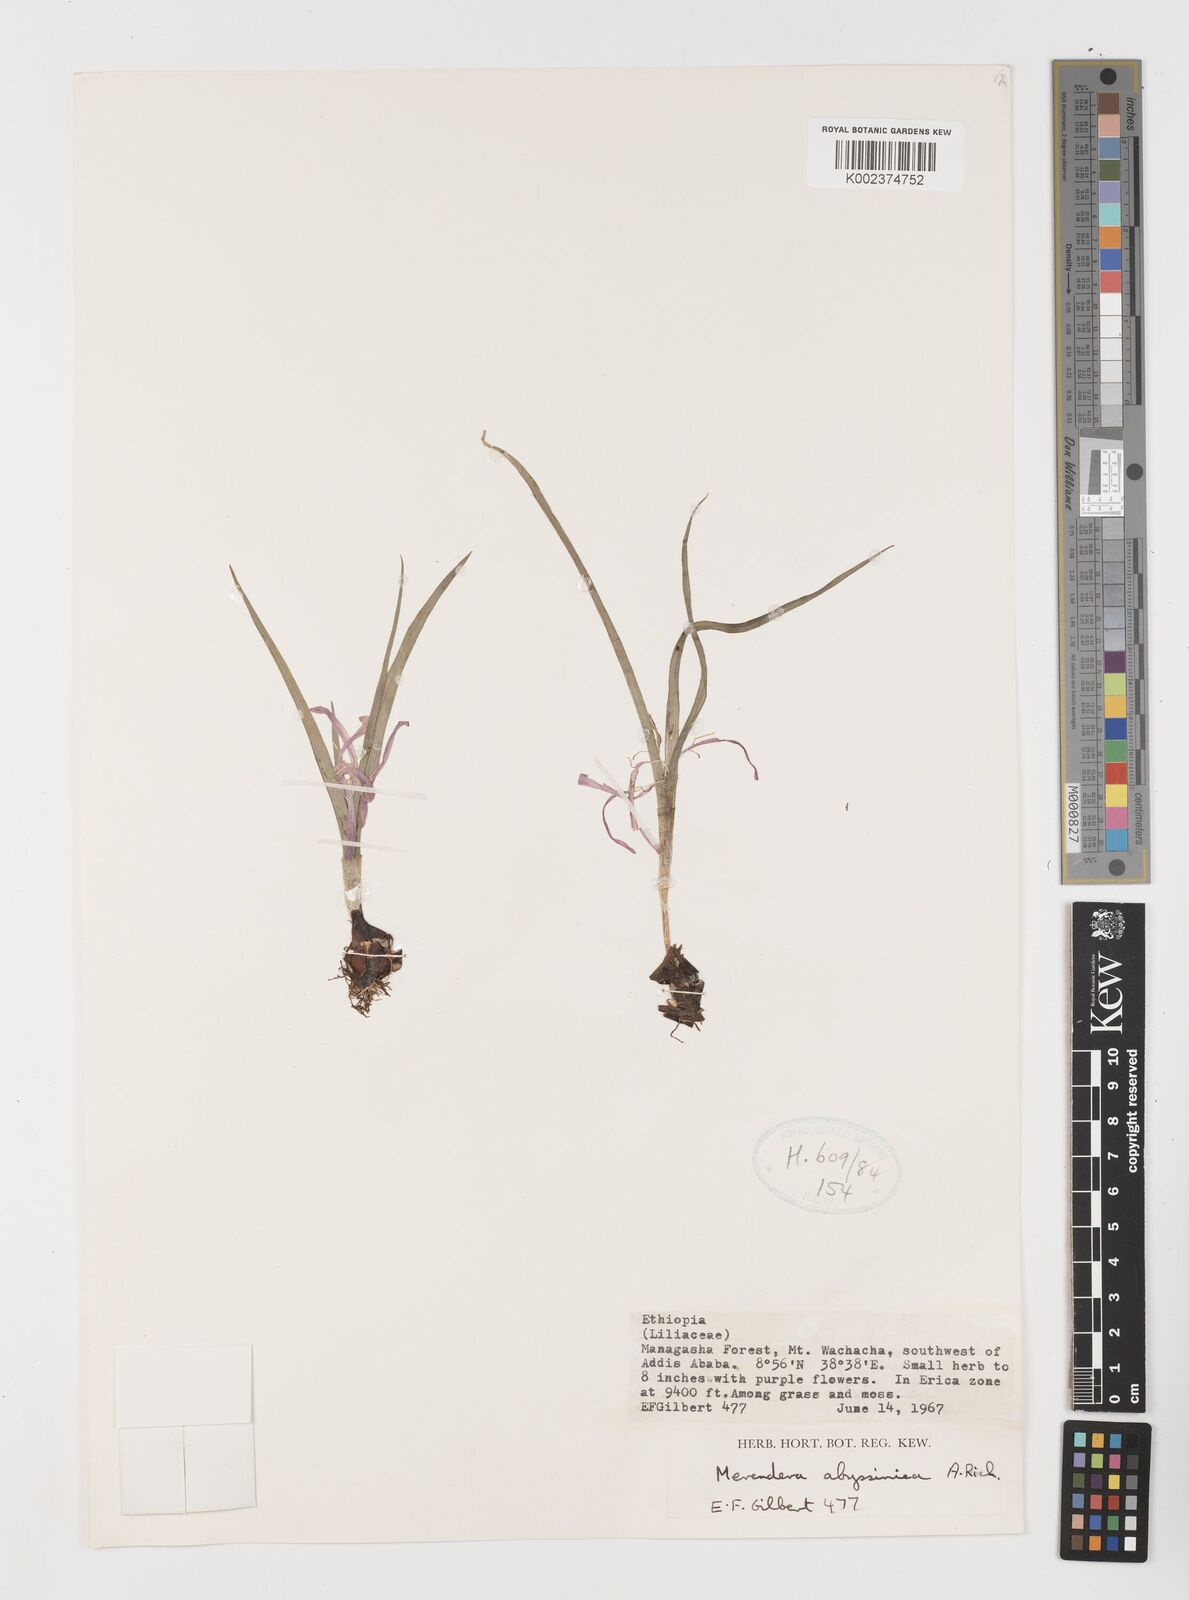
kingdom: Plantae
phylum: Tracheophyta
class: Liliopsida
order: Liliales
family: Colchicaceae
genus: Colchicum
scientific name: Colchicum
